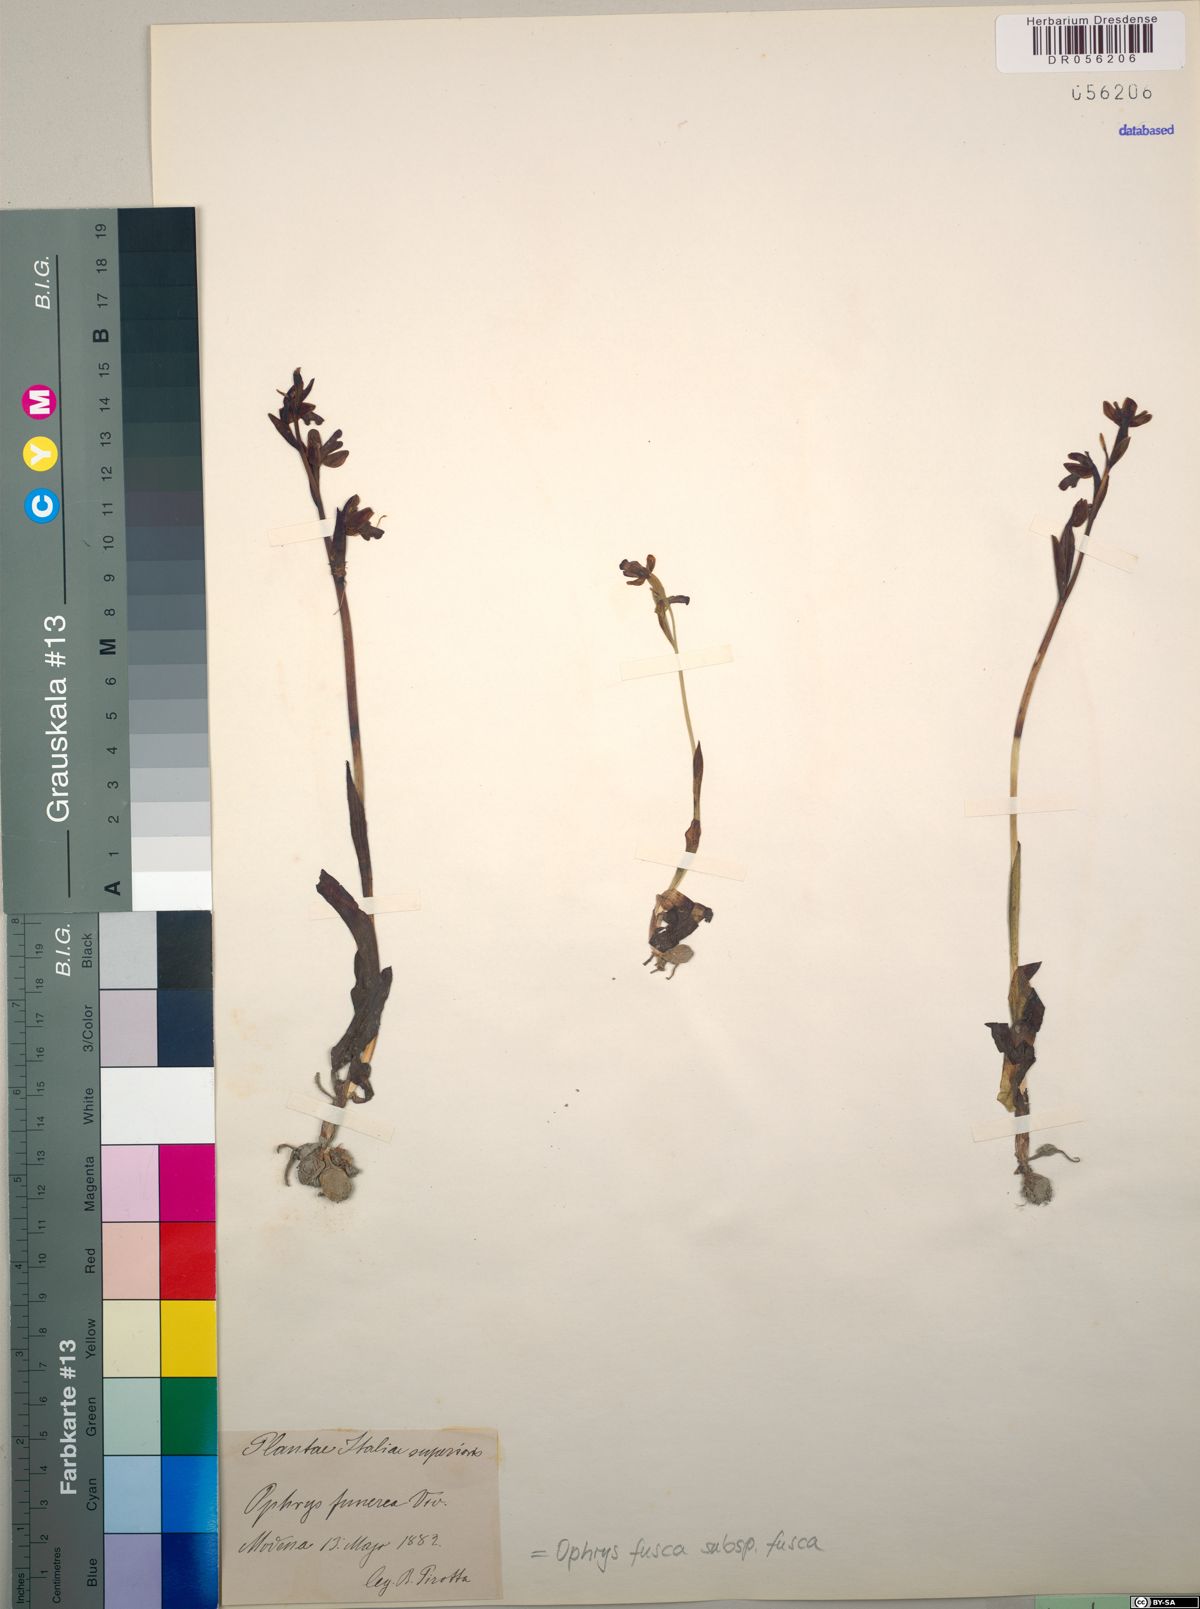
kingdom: Plantae
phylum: Tracheophyta
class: Liliopsida
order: Asparagales
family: Orchidaceae
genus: Ophrys
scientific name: Ophrys fusca
